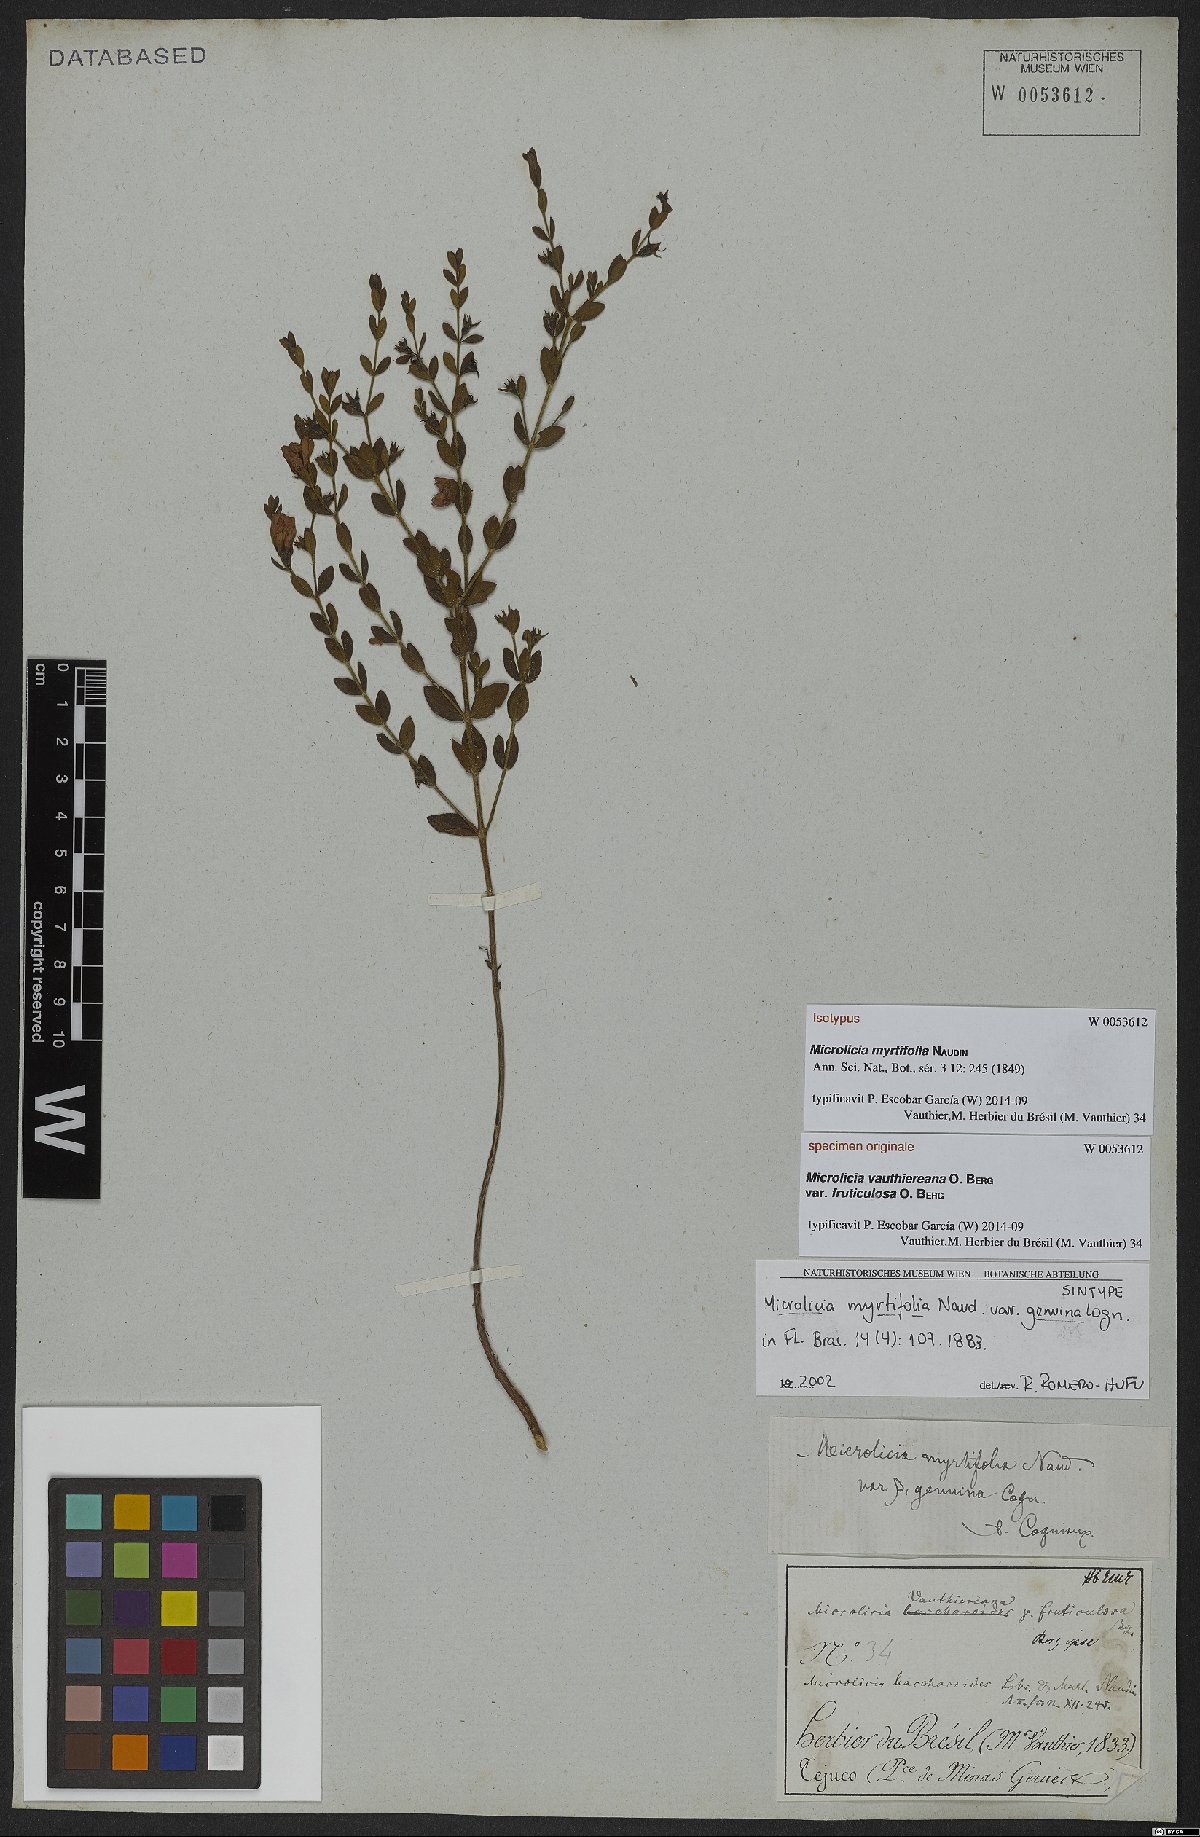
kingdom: Plantae
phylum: Tracheophyta
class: Magnoliopsida
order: Myrtales
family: Melastomataceae
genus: Microlicia
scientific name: Microlicia myrtifolia
